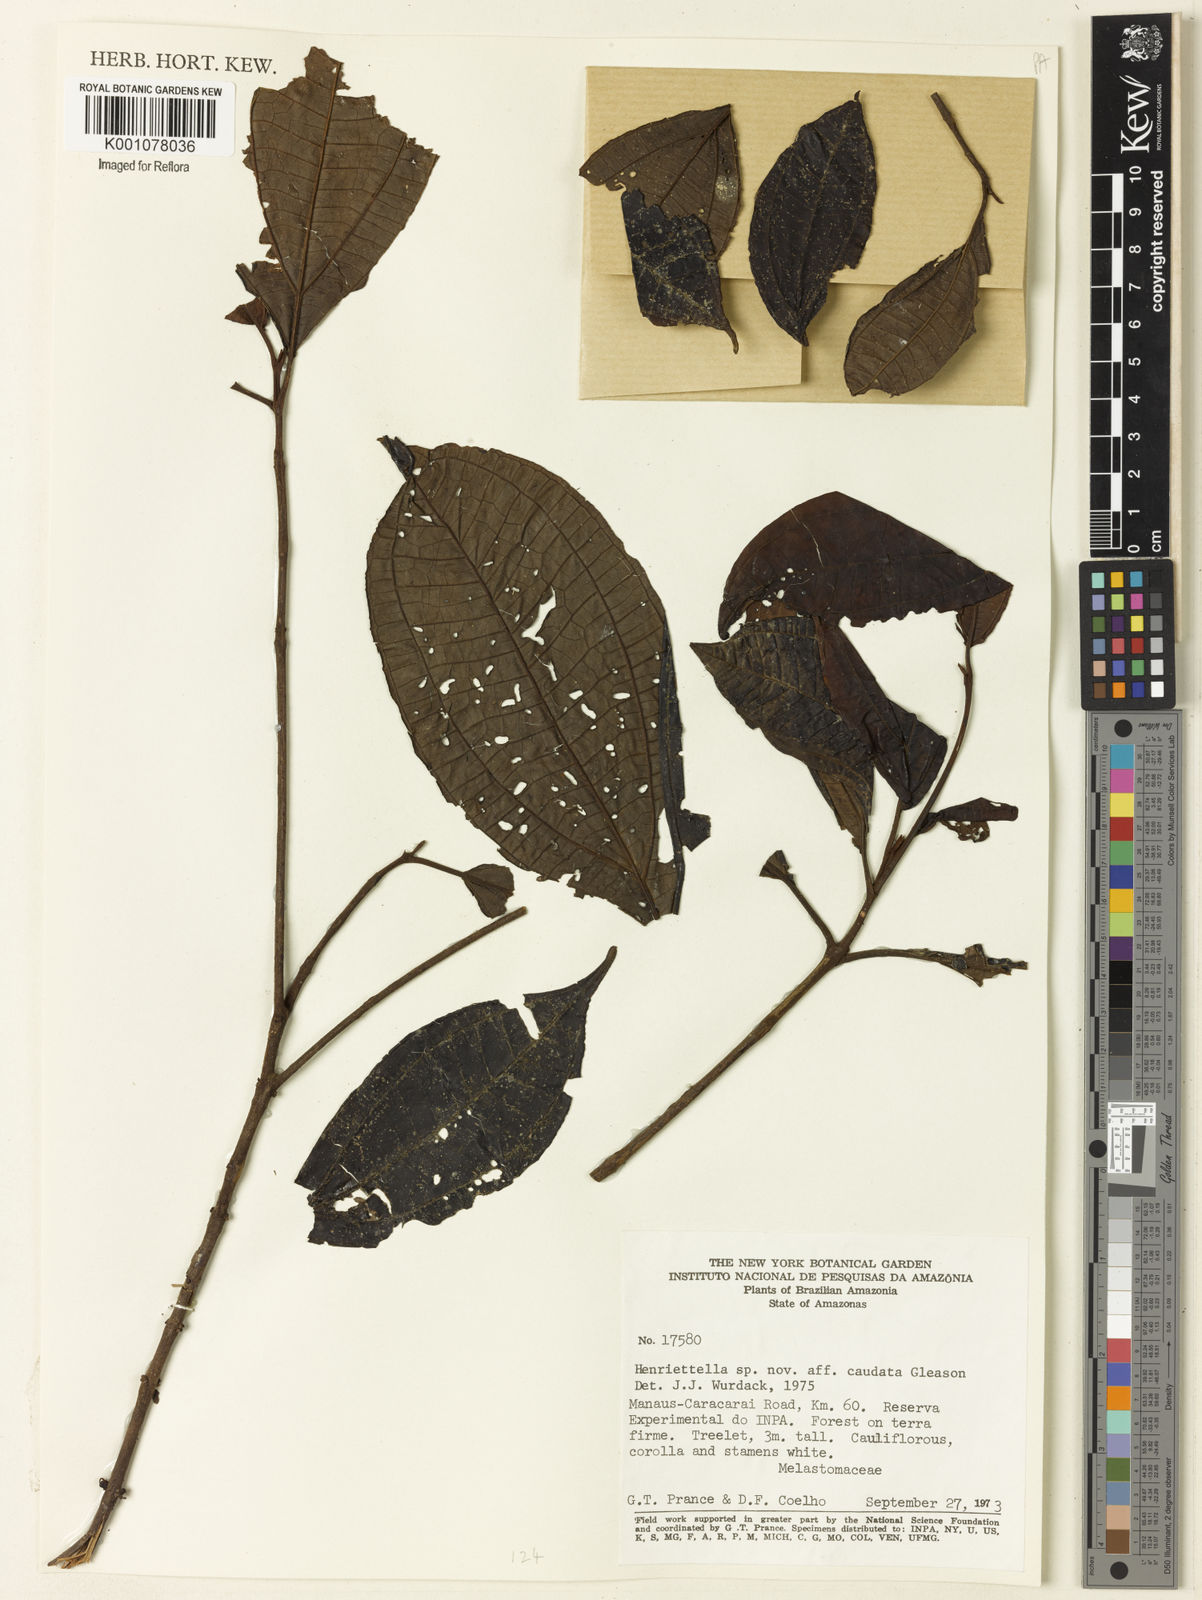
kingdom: Plantae
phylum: Tracheophyta
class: Magnoliopsida
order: Myrtales
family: Melastomataceae
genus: Henriettea
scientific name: Henriettea
